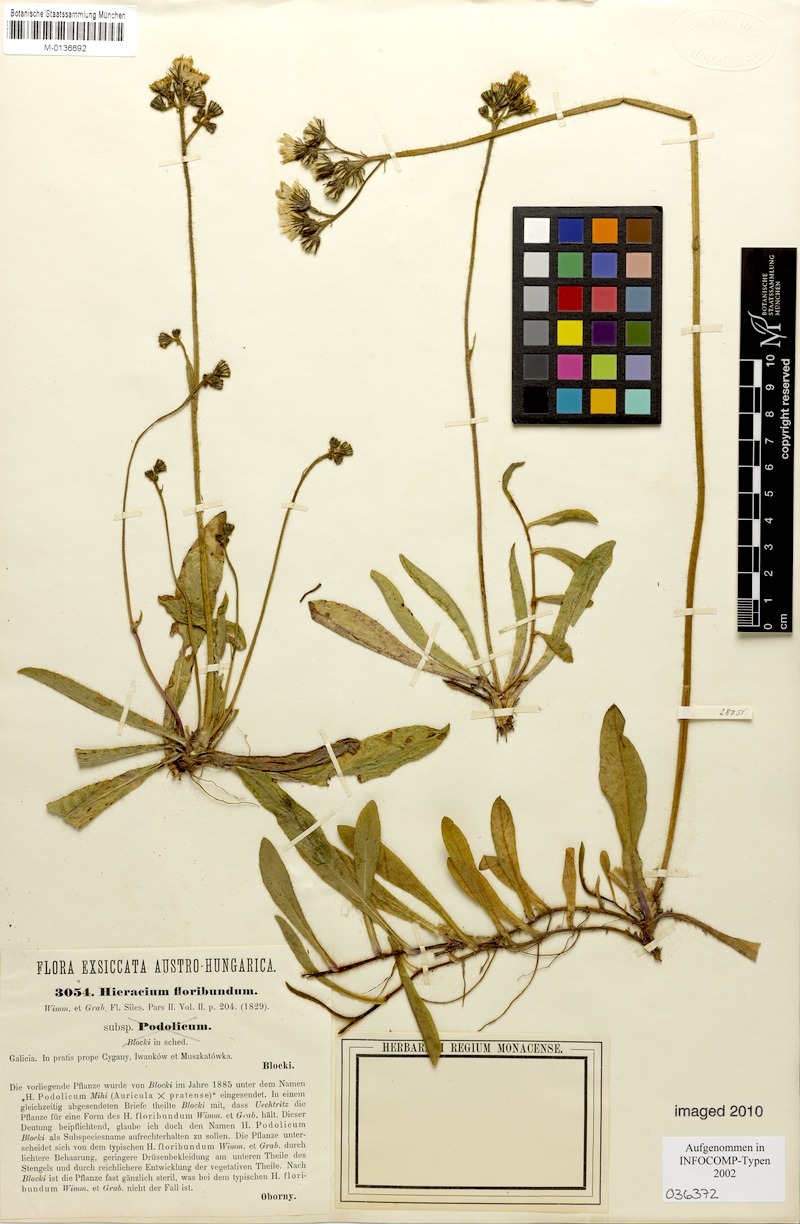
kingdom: Plantae
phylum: Tracheophyta
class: Magnoliopsida
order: Asterales
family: Asteraceae
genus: Pilosella
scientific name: Pilosella floribunda
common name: Glaucous hawkweed
